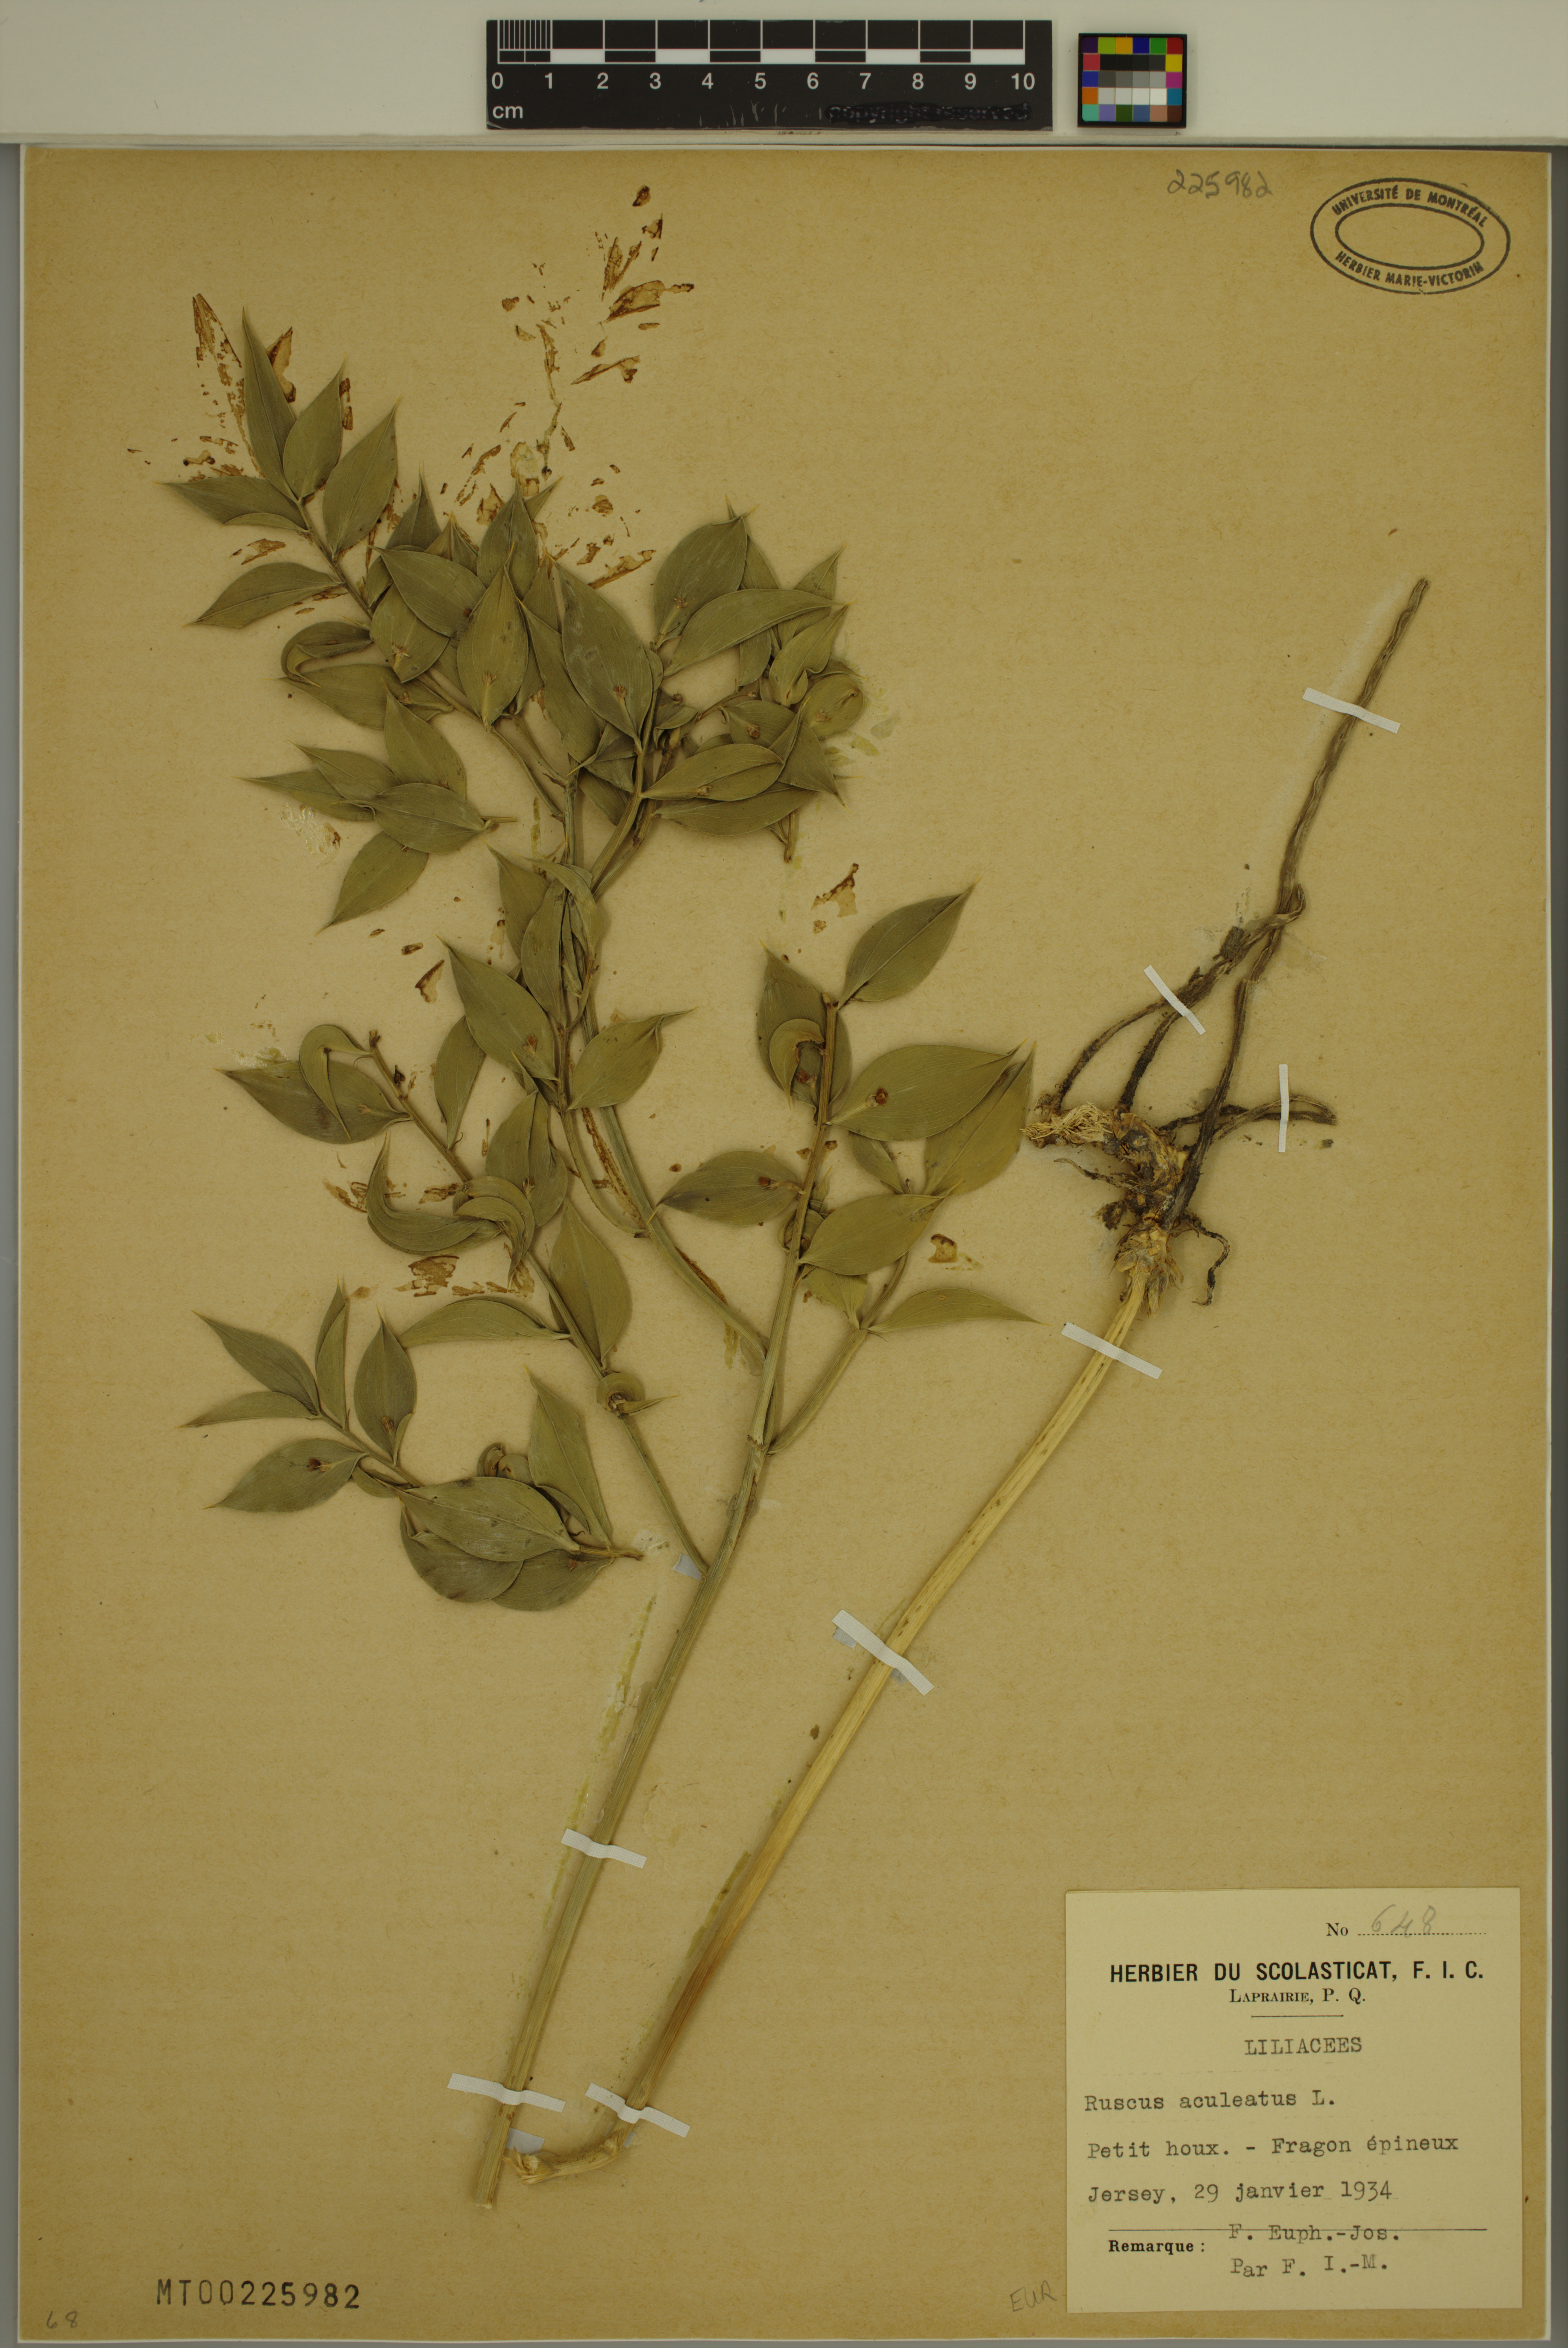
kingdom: Plantae
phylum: Tracheophyta
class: Liliopsida
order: Asparagales
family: Asparagaceae
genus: Ruscus
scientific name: Ruscus aculeatus
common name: Butcher's-broom
